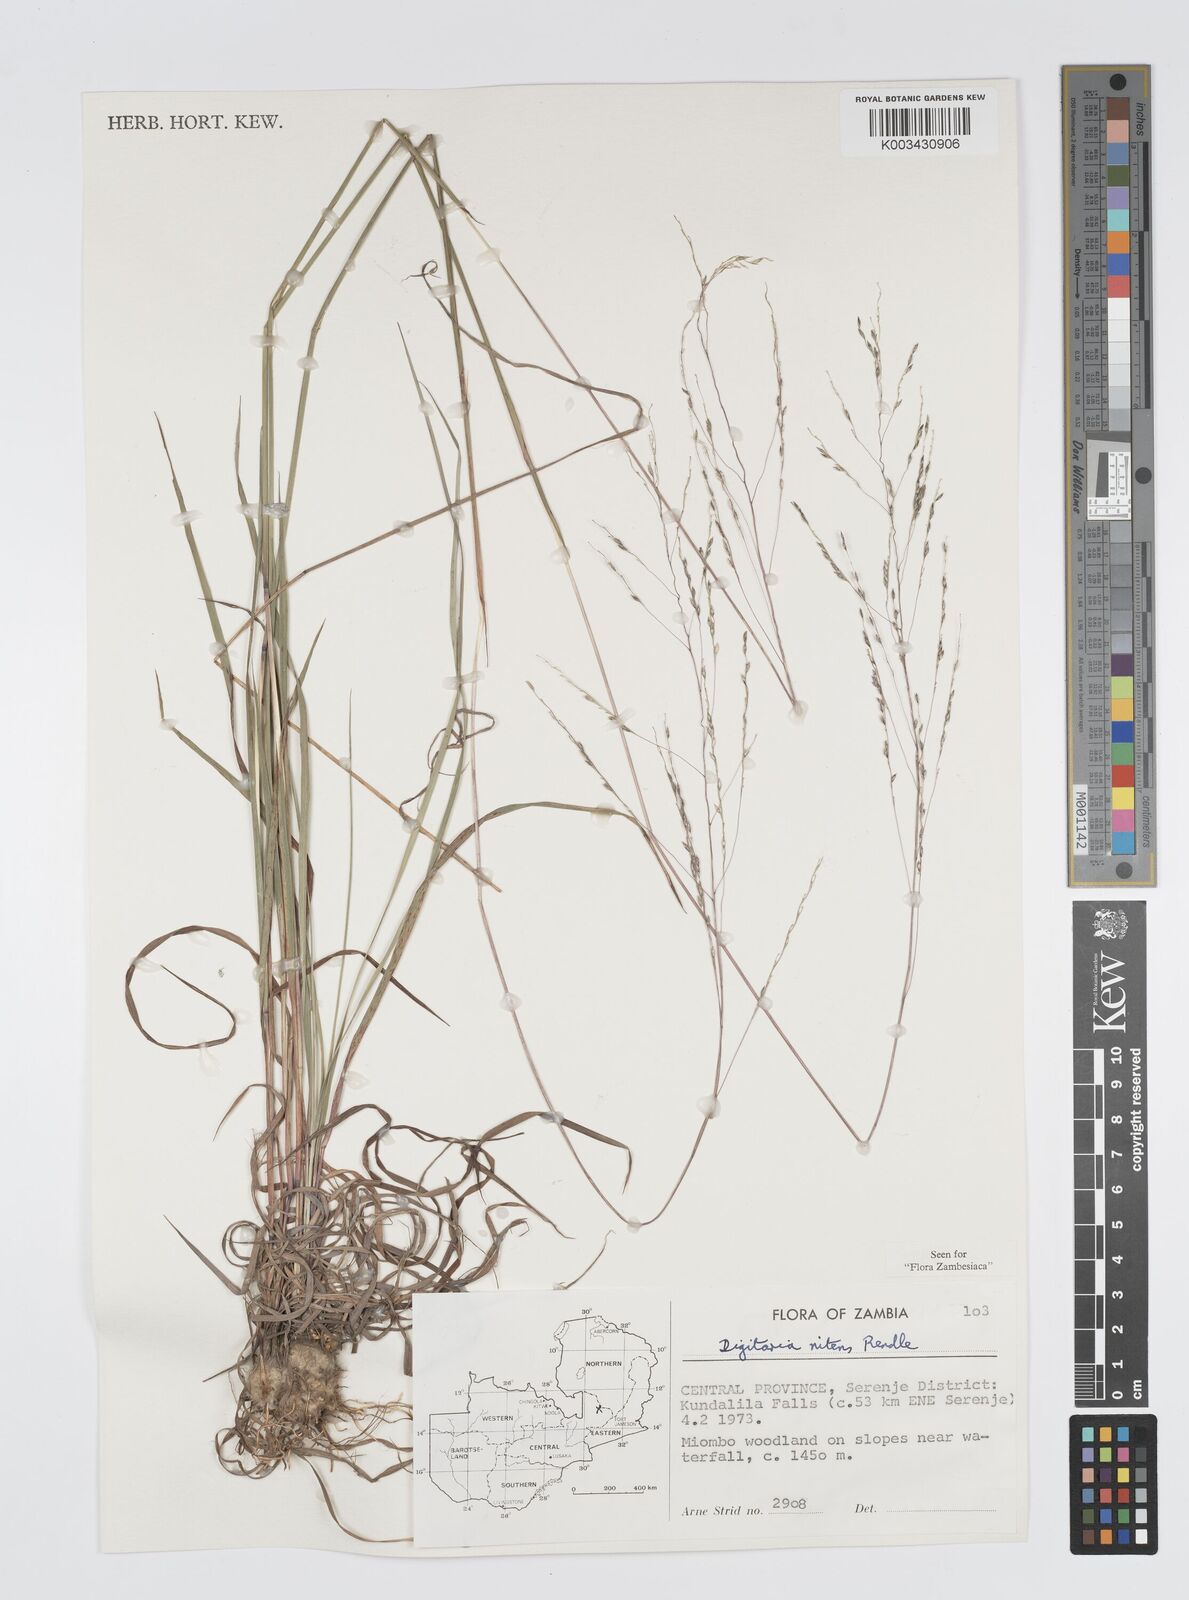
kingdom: Plantae
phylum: Tracheophyta
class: Liliopsida
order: Poales
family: Poaceae
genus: Digitaria
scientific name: Digitaria flaccida
